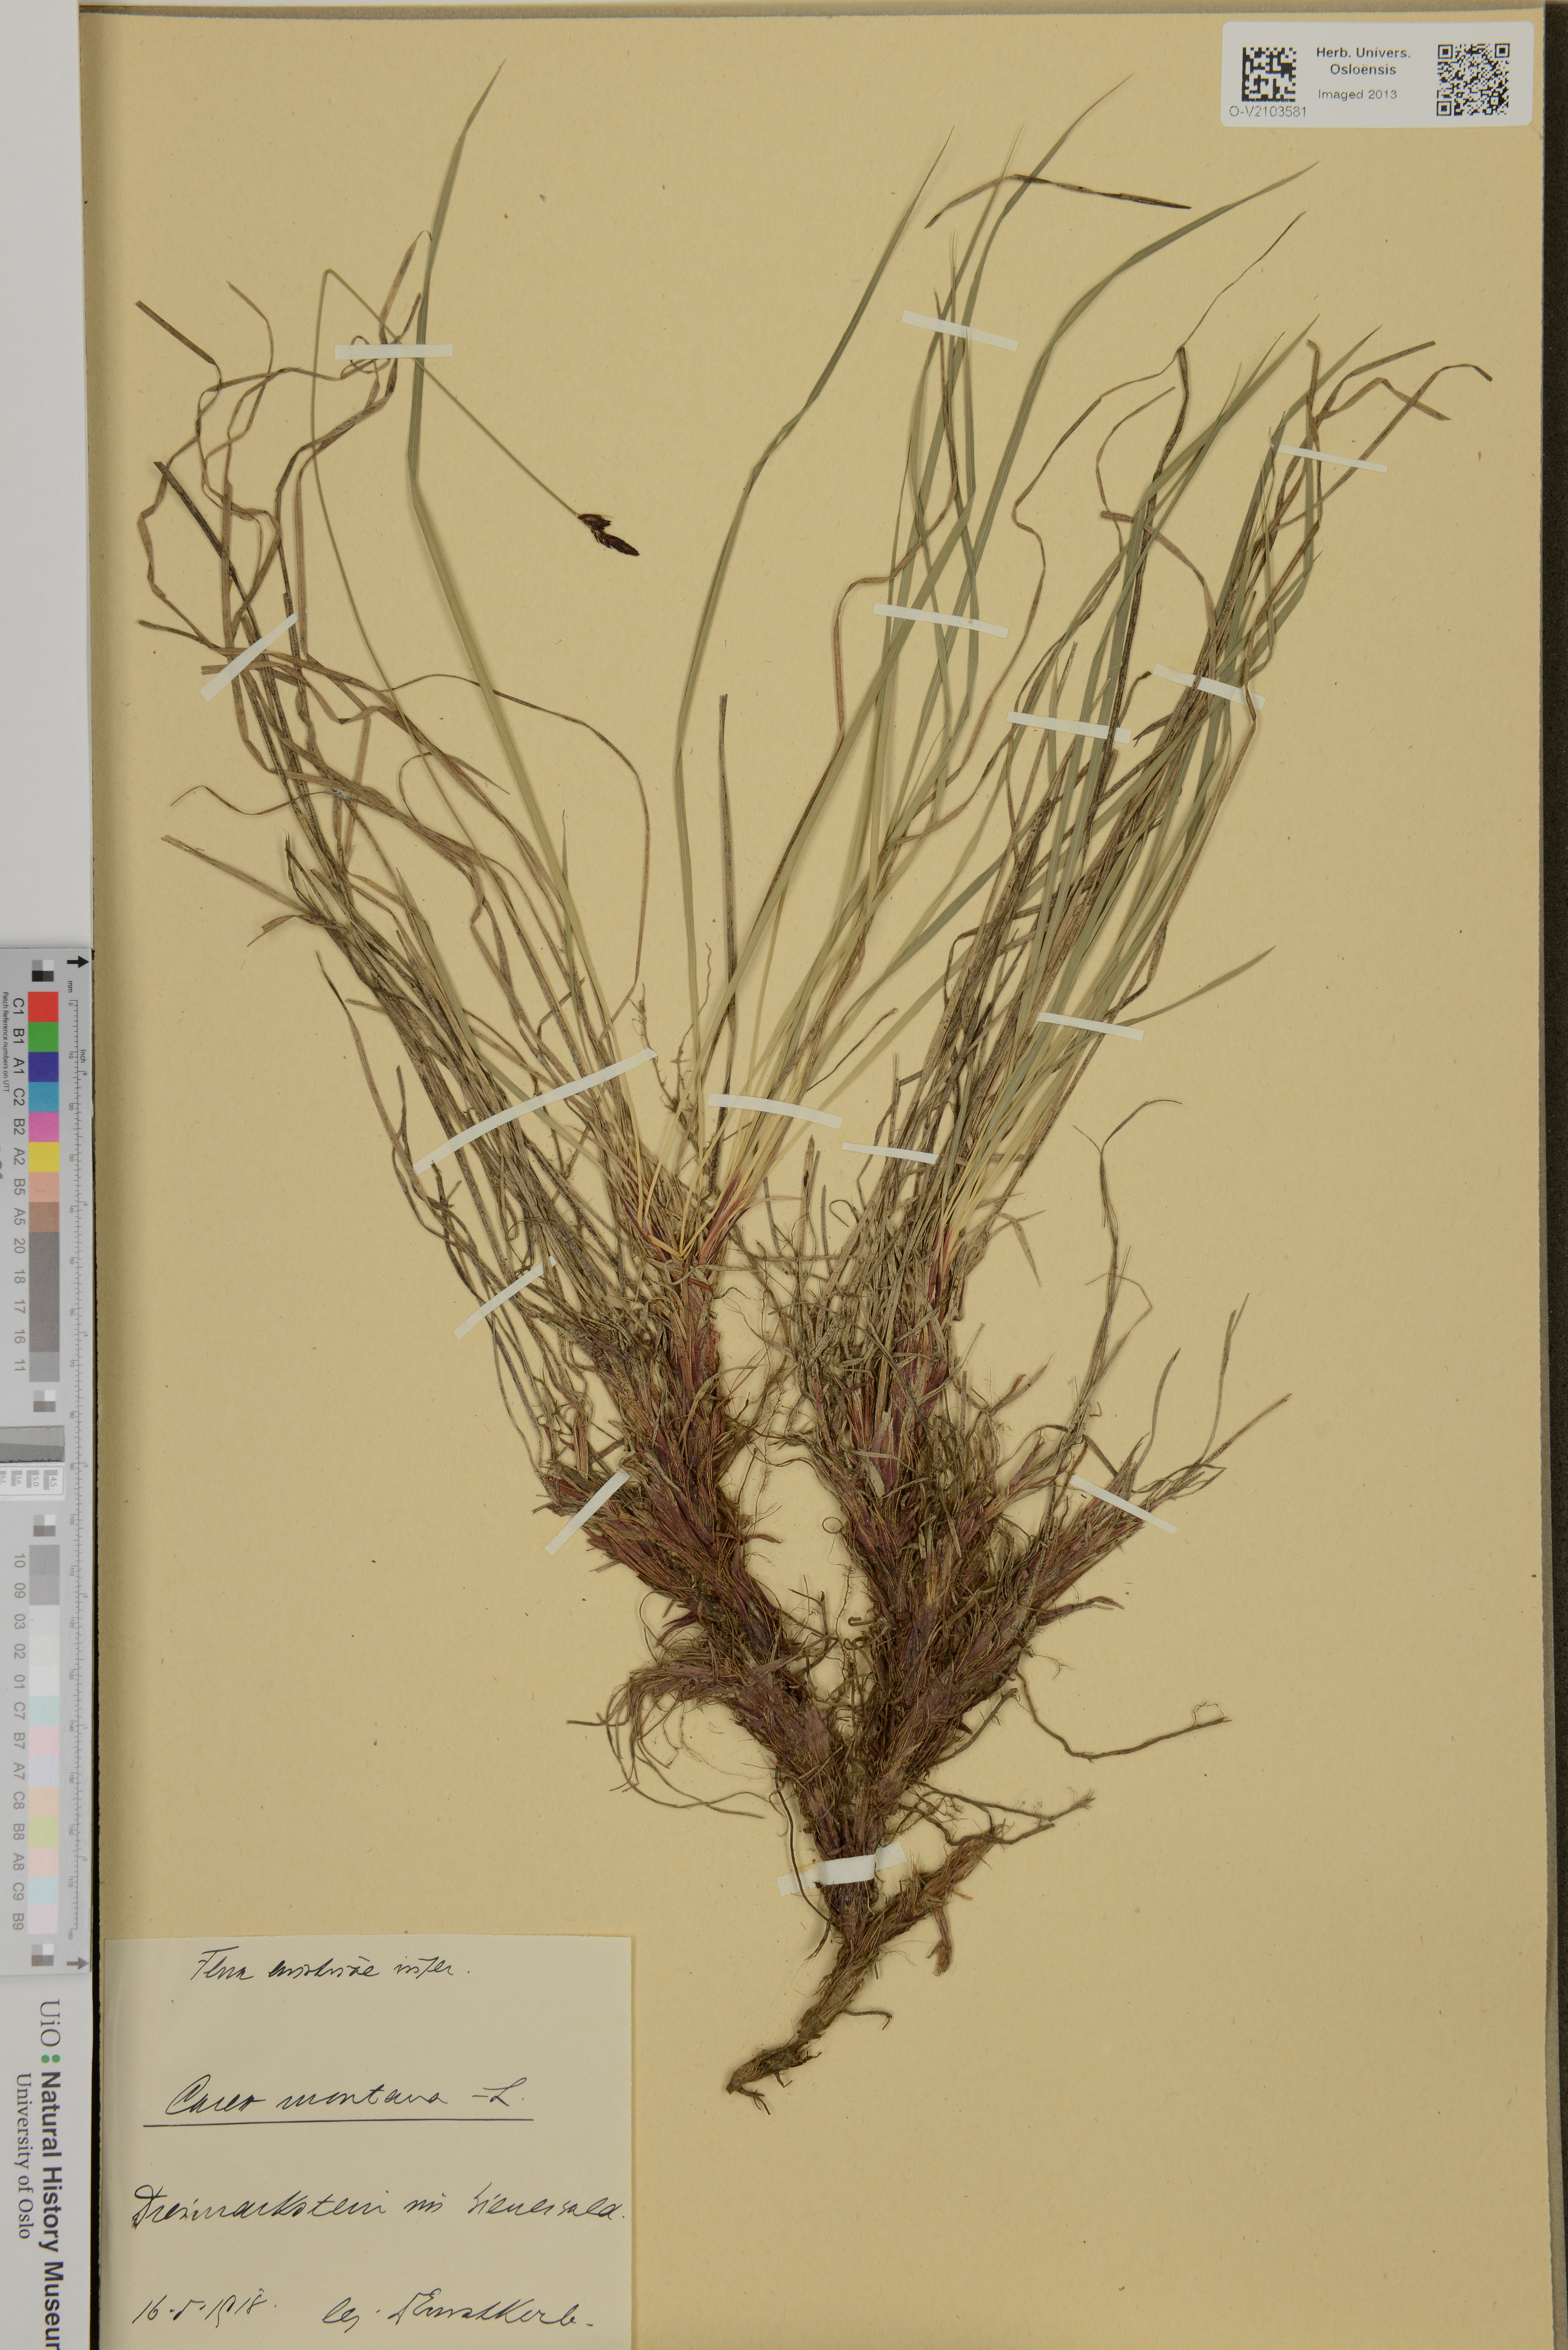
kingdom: Plantae
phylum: Tracheophyta
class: Liliopsida
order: Poales
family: Cyperaceae
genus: Carex
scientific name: Carex montana
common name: Soft-leaved sedge
